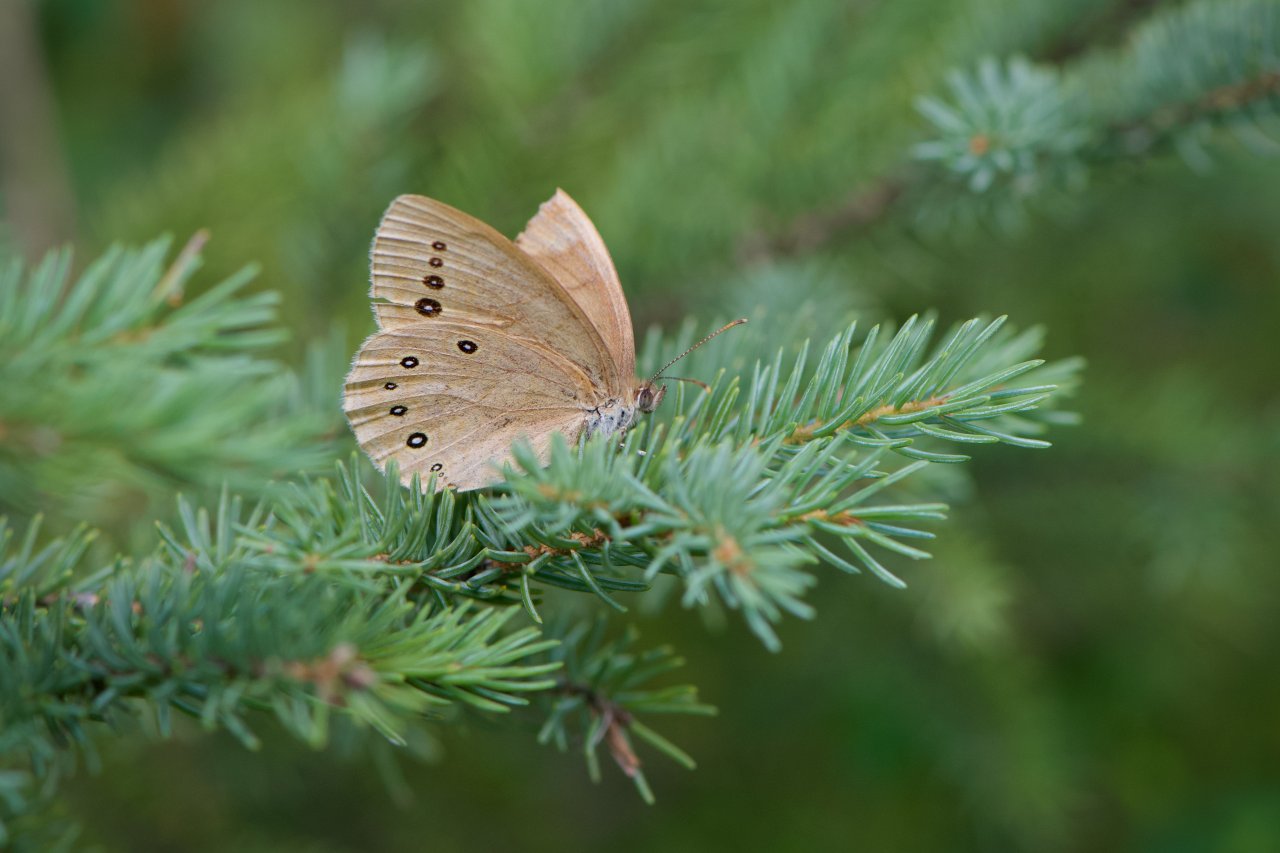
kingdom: Animalia
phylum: Arthropoda
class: Insecta
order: Lepidoptera
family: Nymphalidae
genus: Lethe
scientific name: Lethe eurydice
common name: Eyed Brown
